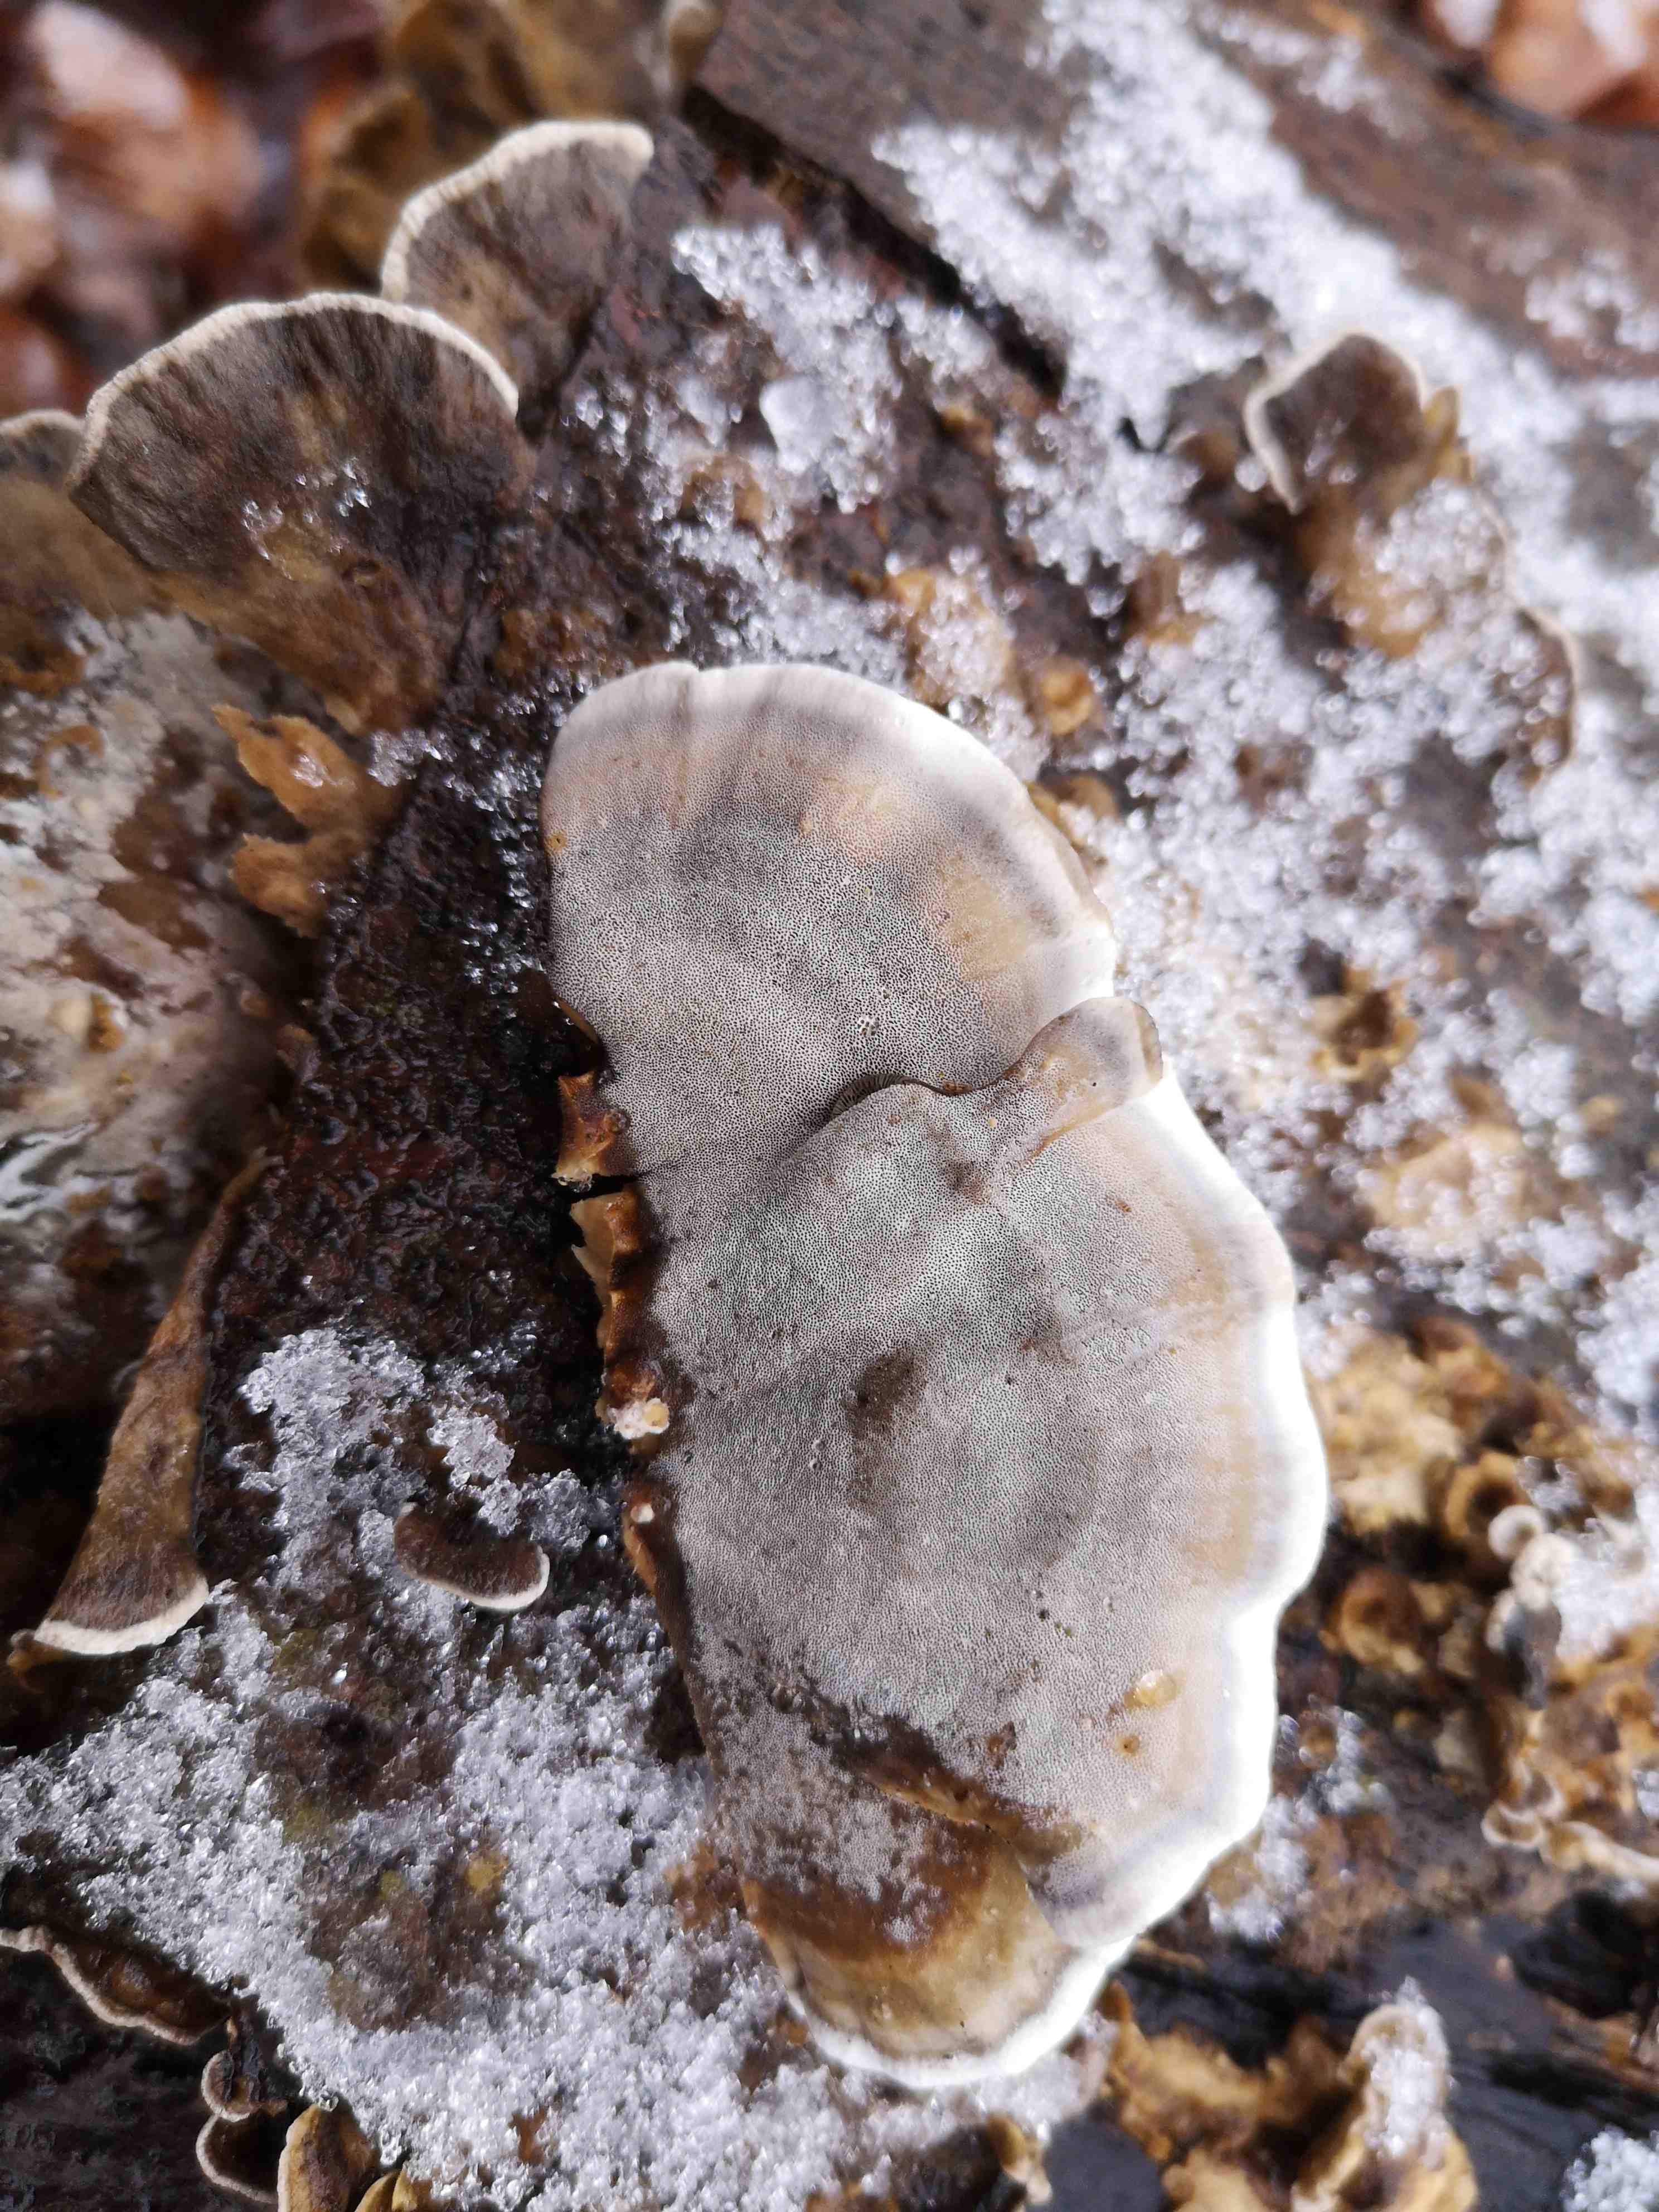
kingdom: Fungi
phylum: Basidiomycota
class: Agaricomycetes
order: Polyporales
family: Phanerochaetaceae
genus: Bjerkandera
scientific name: Bjerkandera adusta
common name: sveden sodporesvamp
